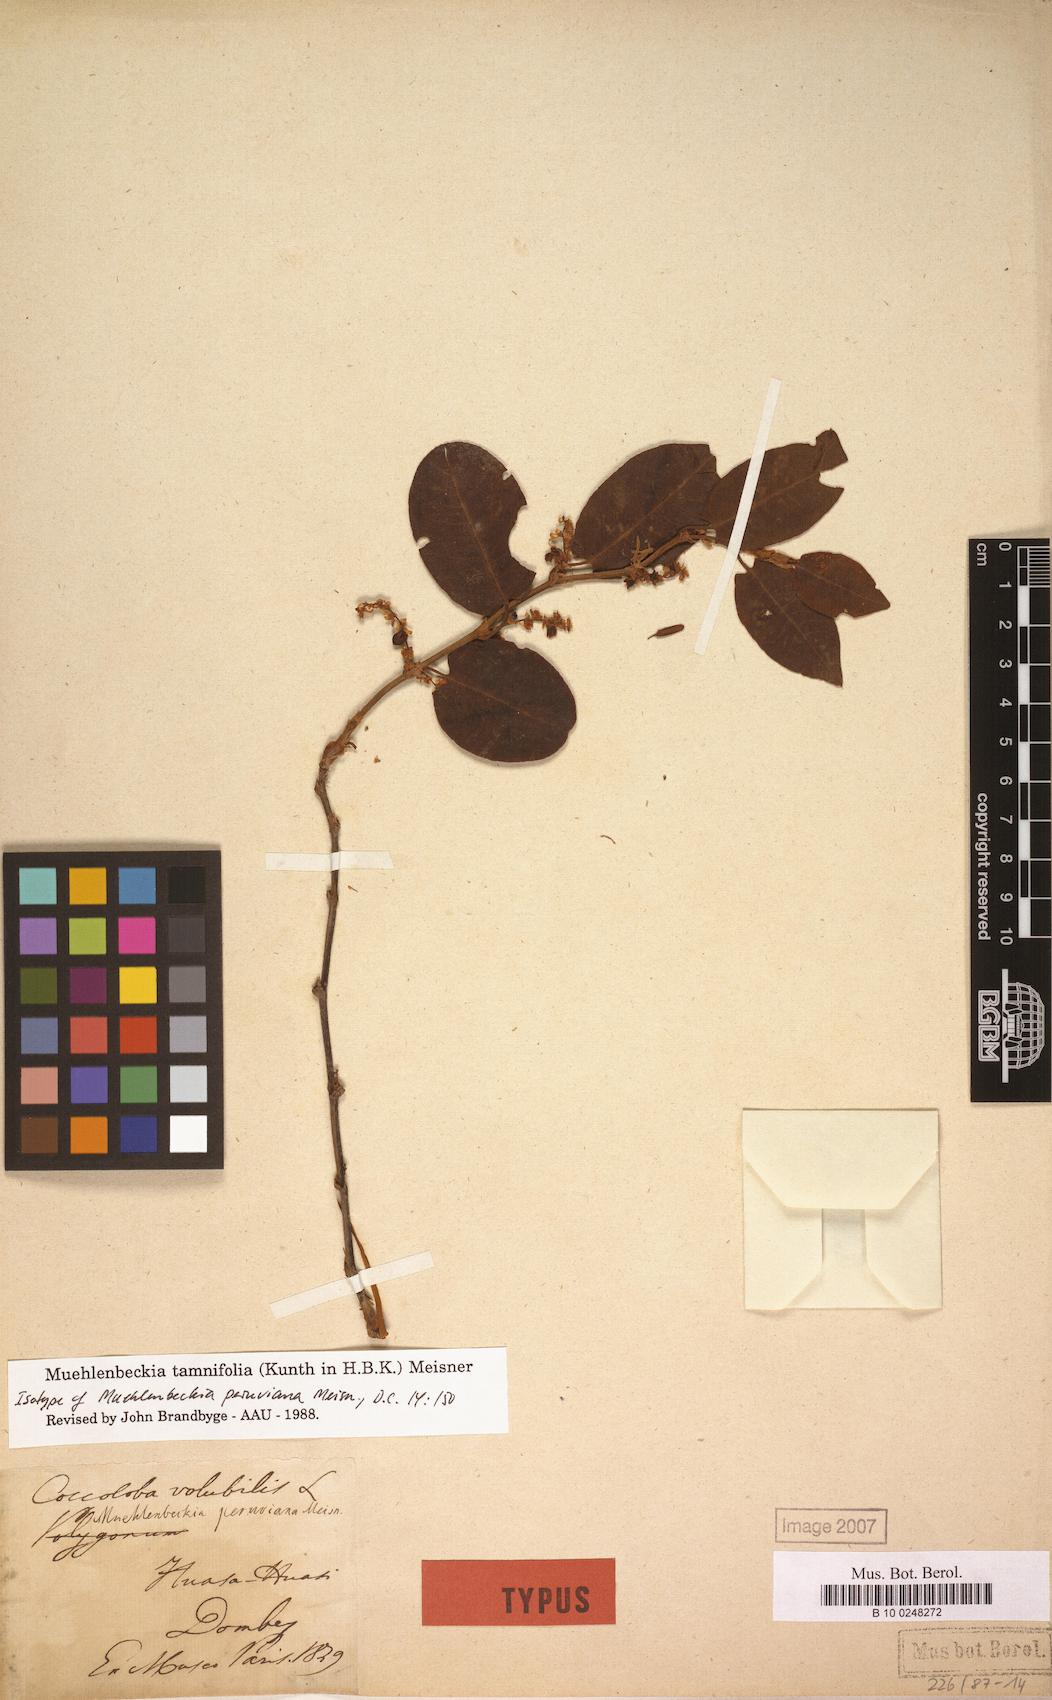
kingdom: Plantae
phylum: Tracheophyta
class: Magnoliopsida
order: Caryophyllales
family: Polygonaceae
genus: Muehlenbeckia
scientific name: Muehlenbeckia tamnifolia
